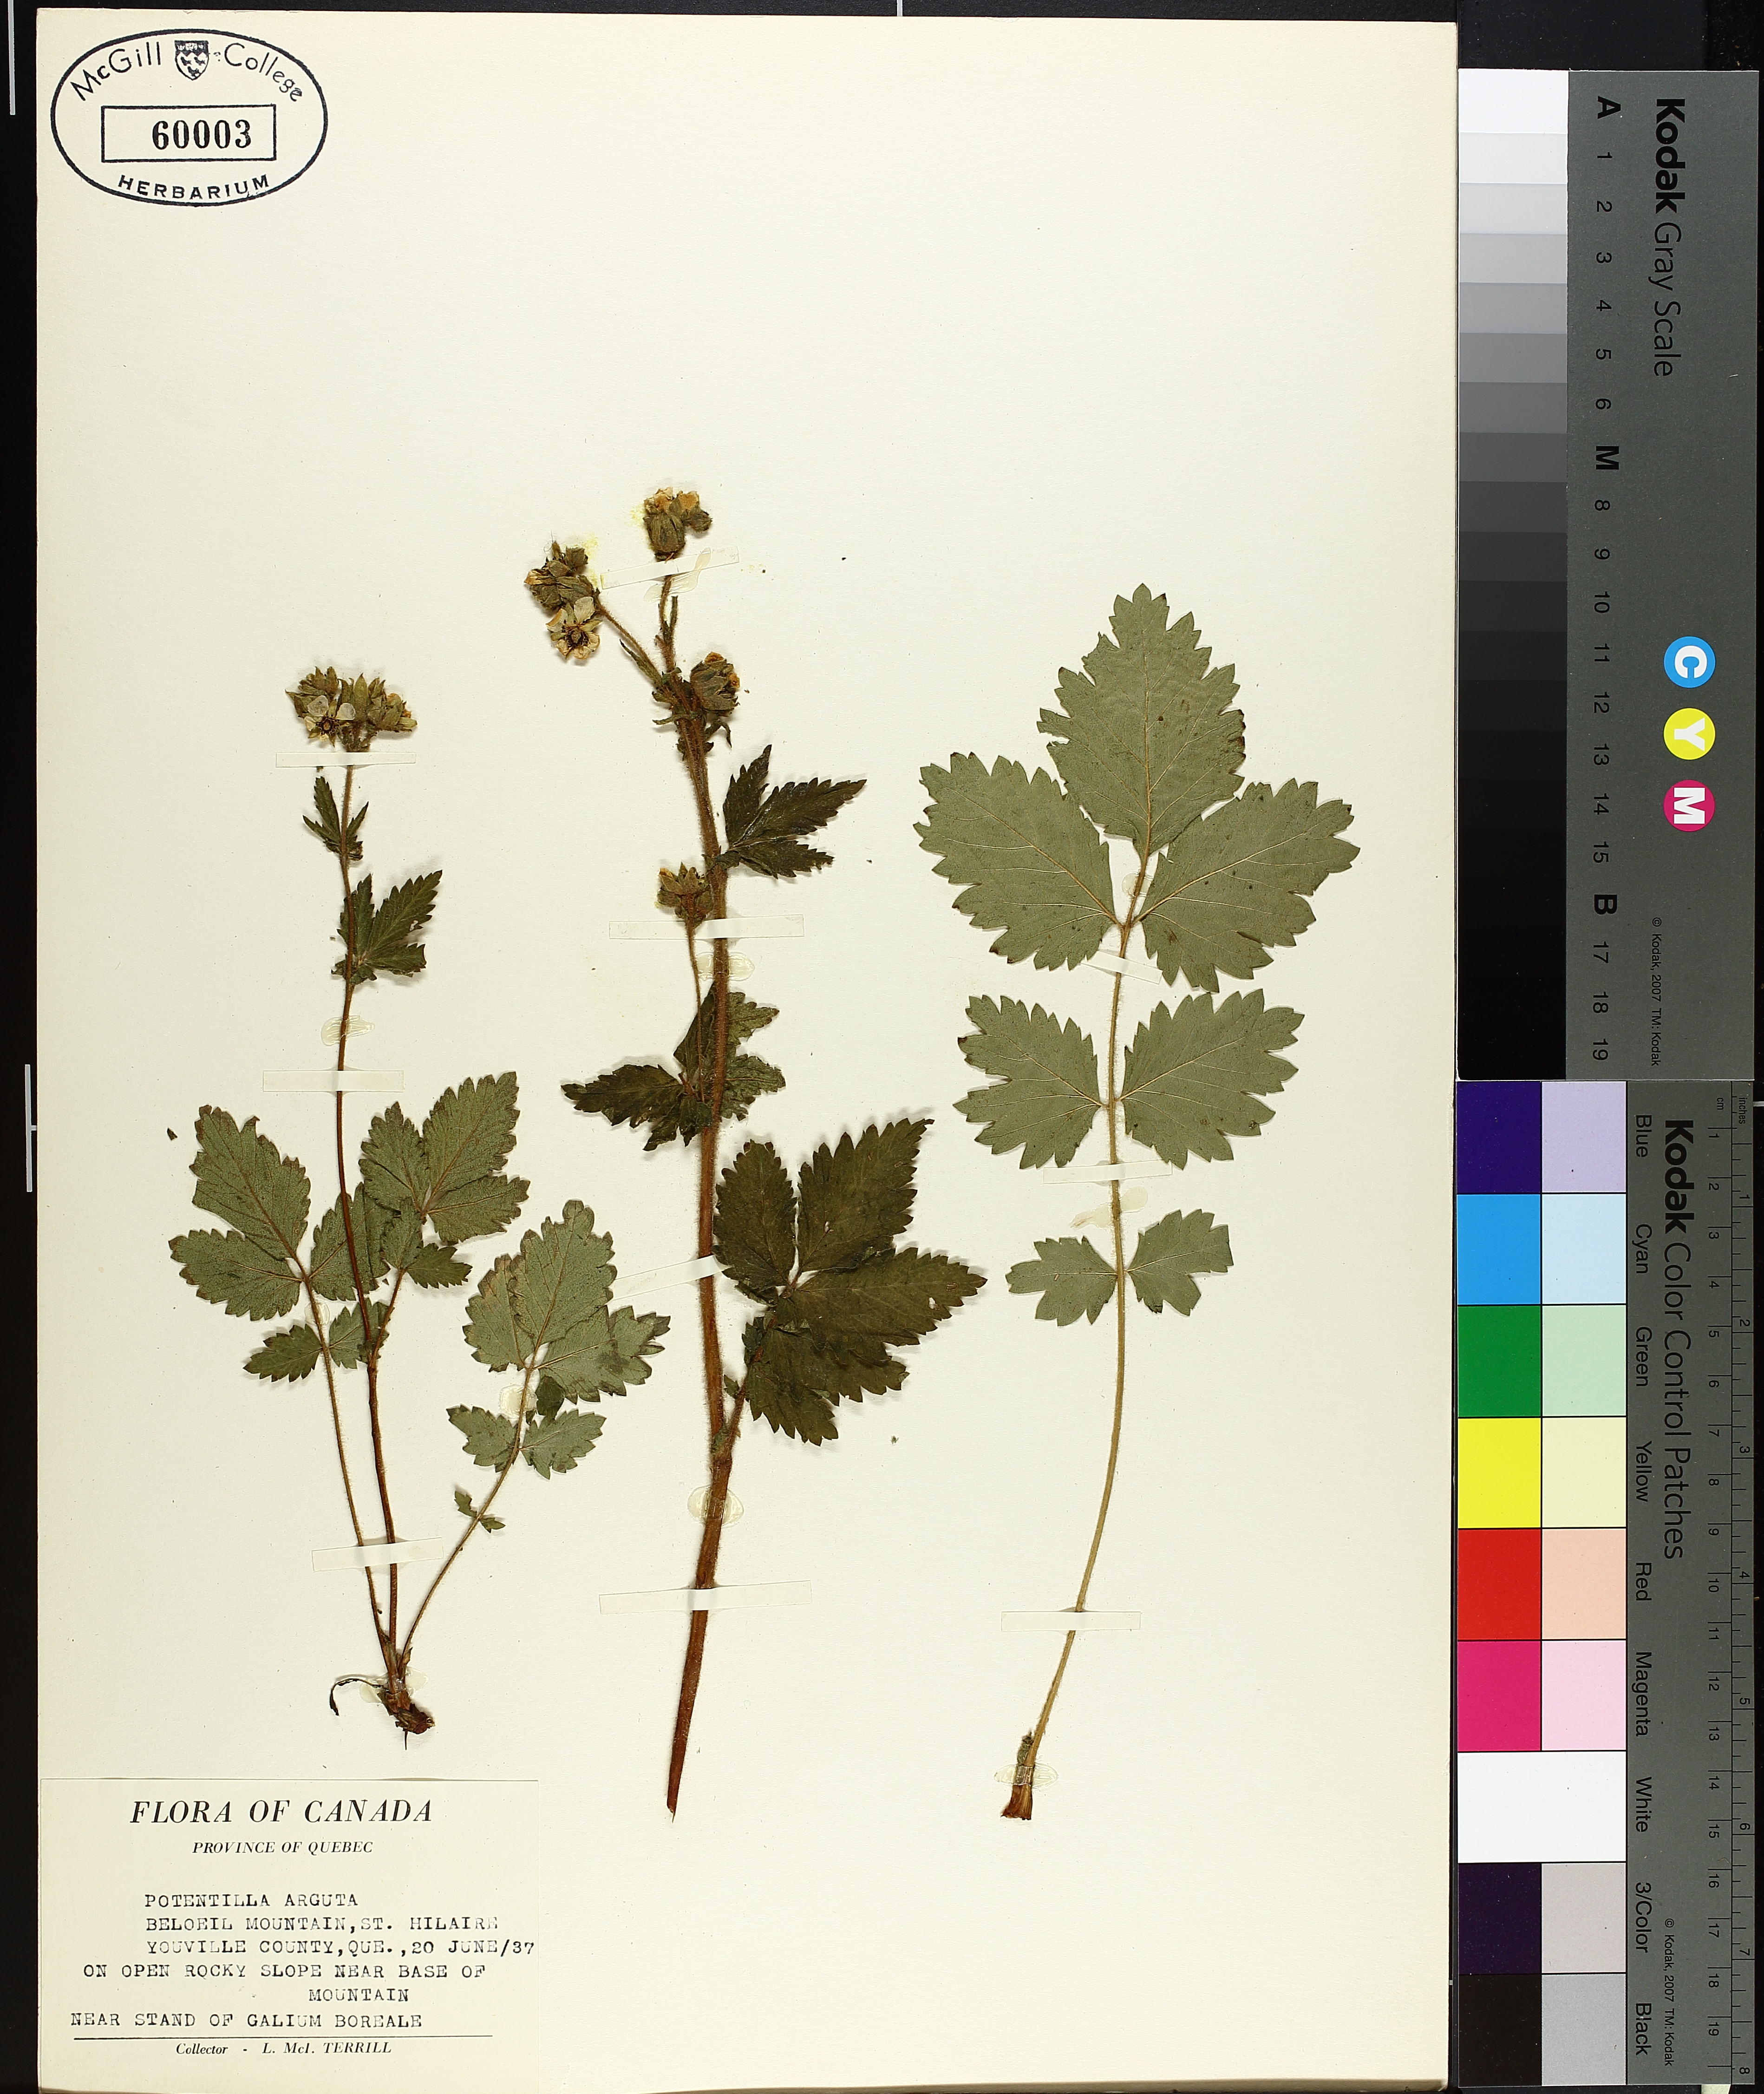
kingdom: Plantae
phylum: Tracheophyta
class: Magnoliopsida
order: Caryophyllales
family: Polygonaceae
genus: Persicaria
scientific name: Persicaria maculosa
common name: Redshank
